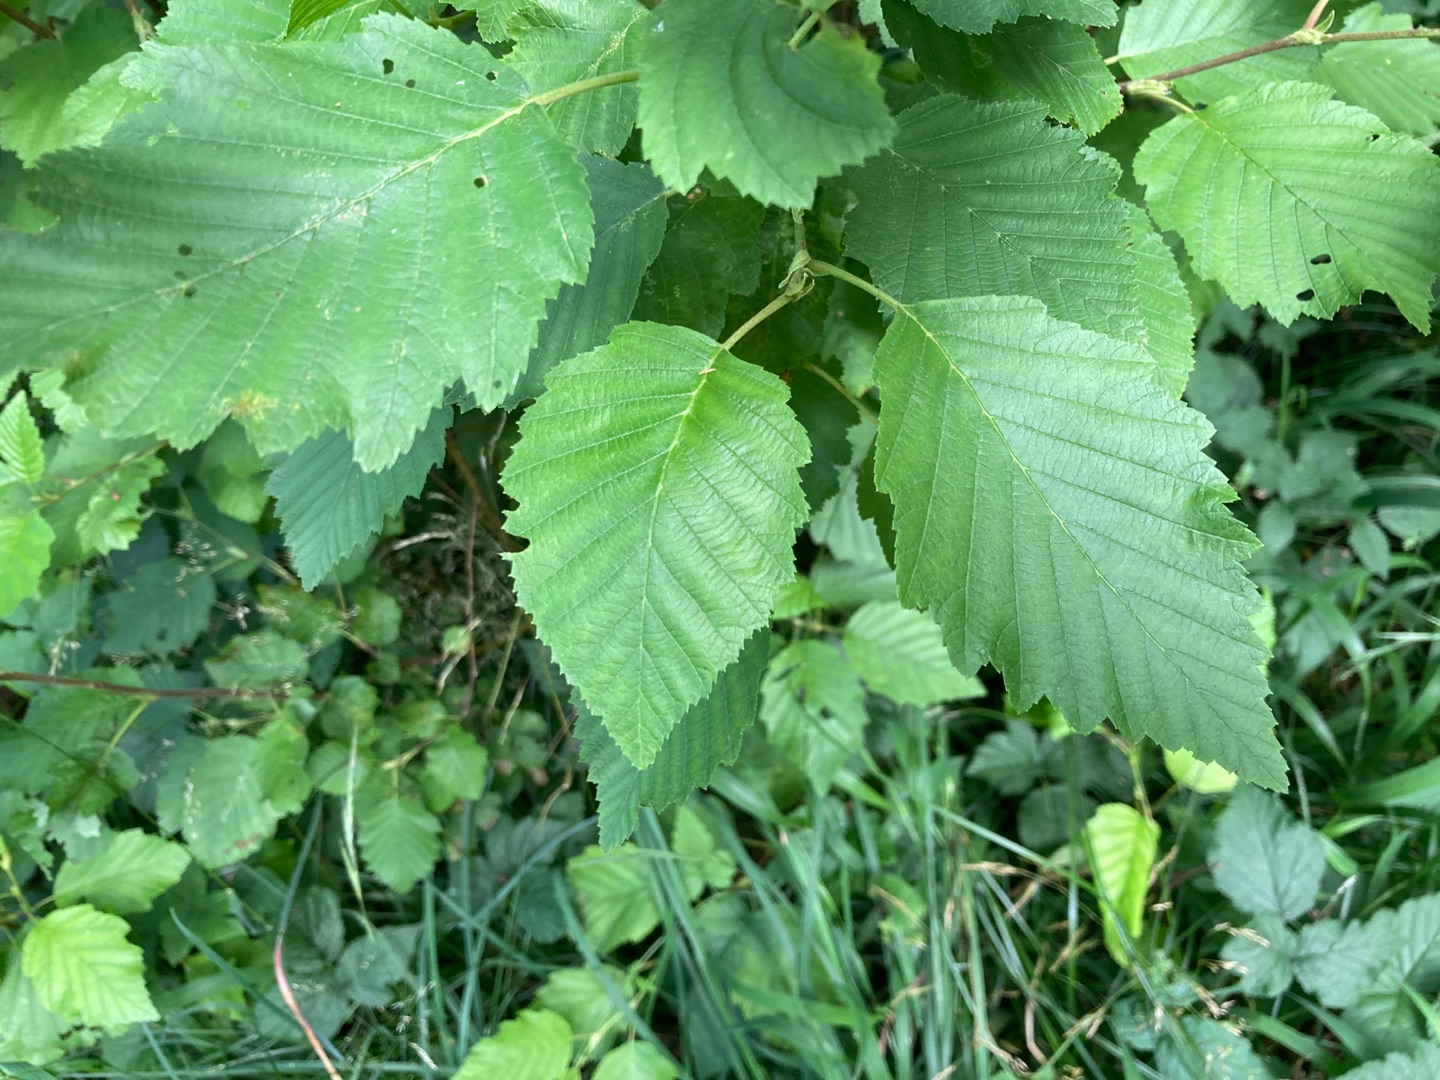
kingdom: Plantae
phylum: Tracheophyta
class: Magnoliopsida
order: Fagales
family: Betulaceae
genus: Alnus
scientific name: Alnus incana
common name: Grå-el/hvid-el
